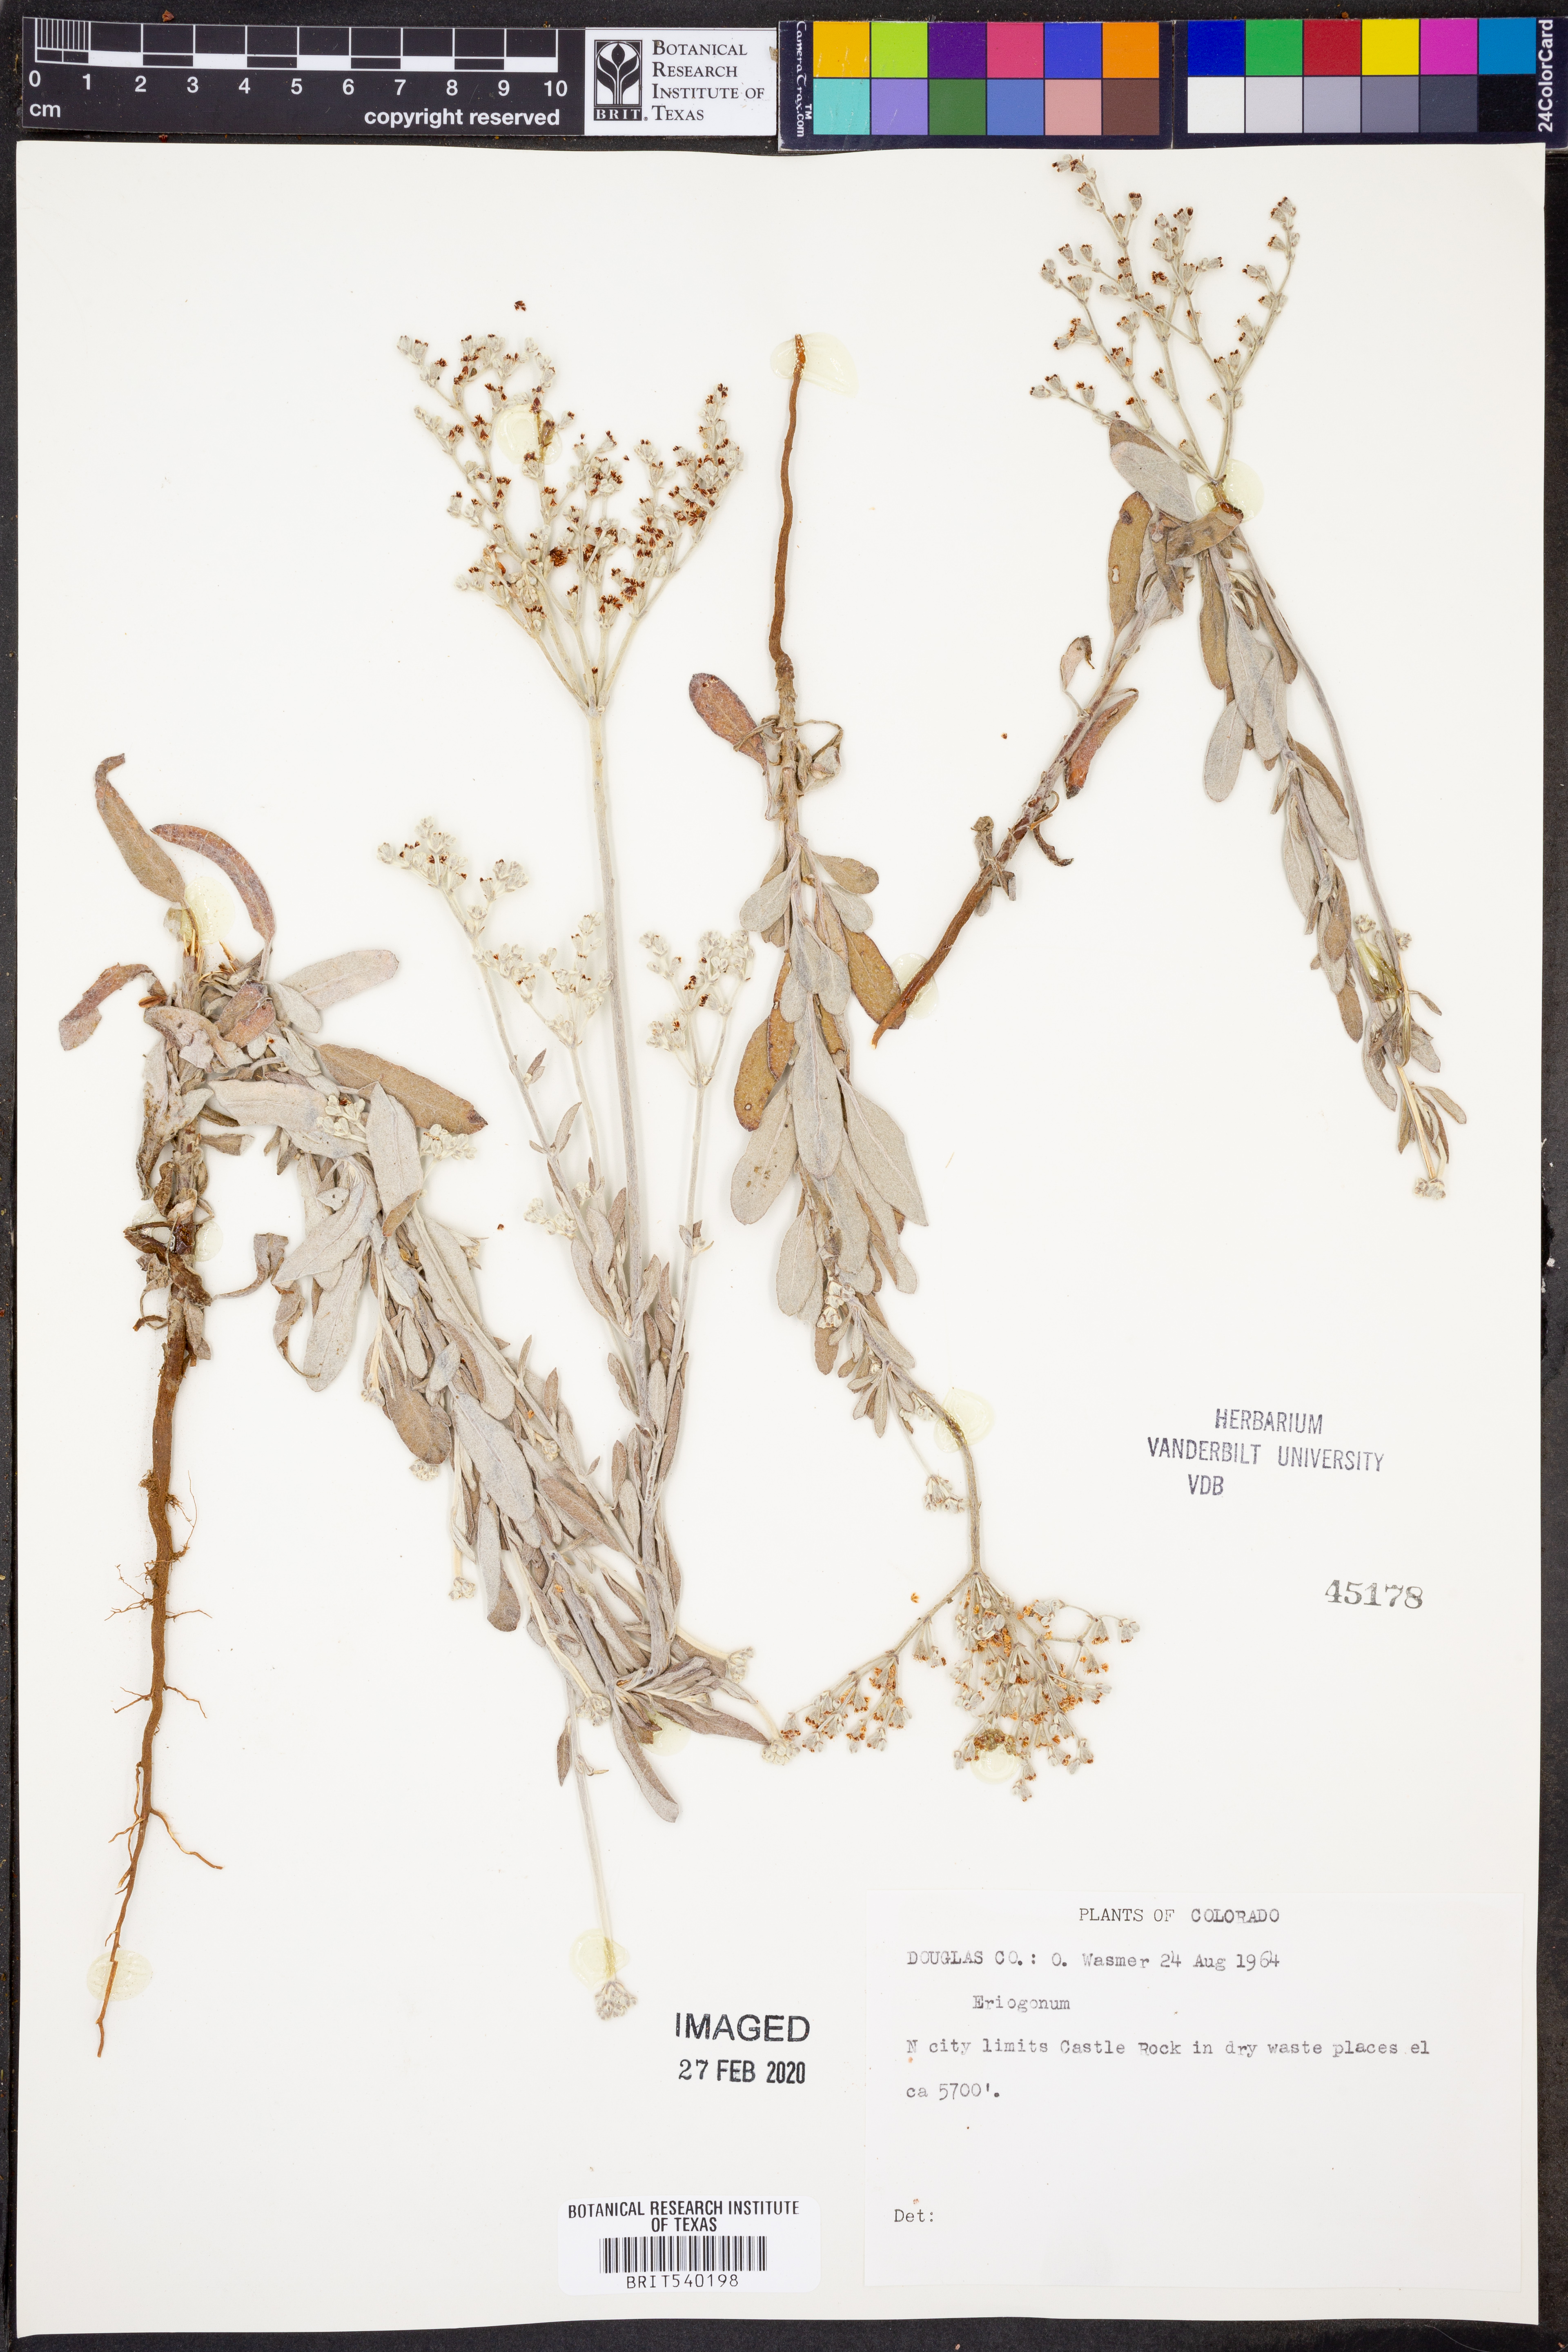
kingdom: Plantae
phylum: Tracheophyta
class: Magnoliopsida
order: Caryophyllales
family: Polygonaceae
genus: Eriogonum
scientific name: Eriogonum
